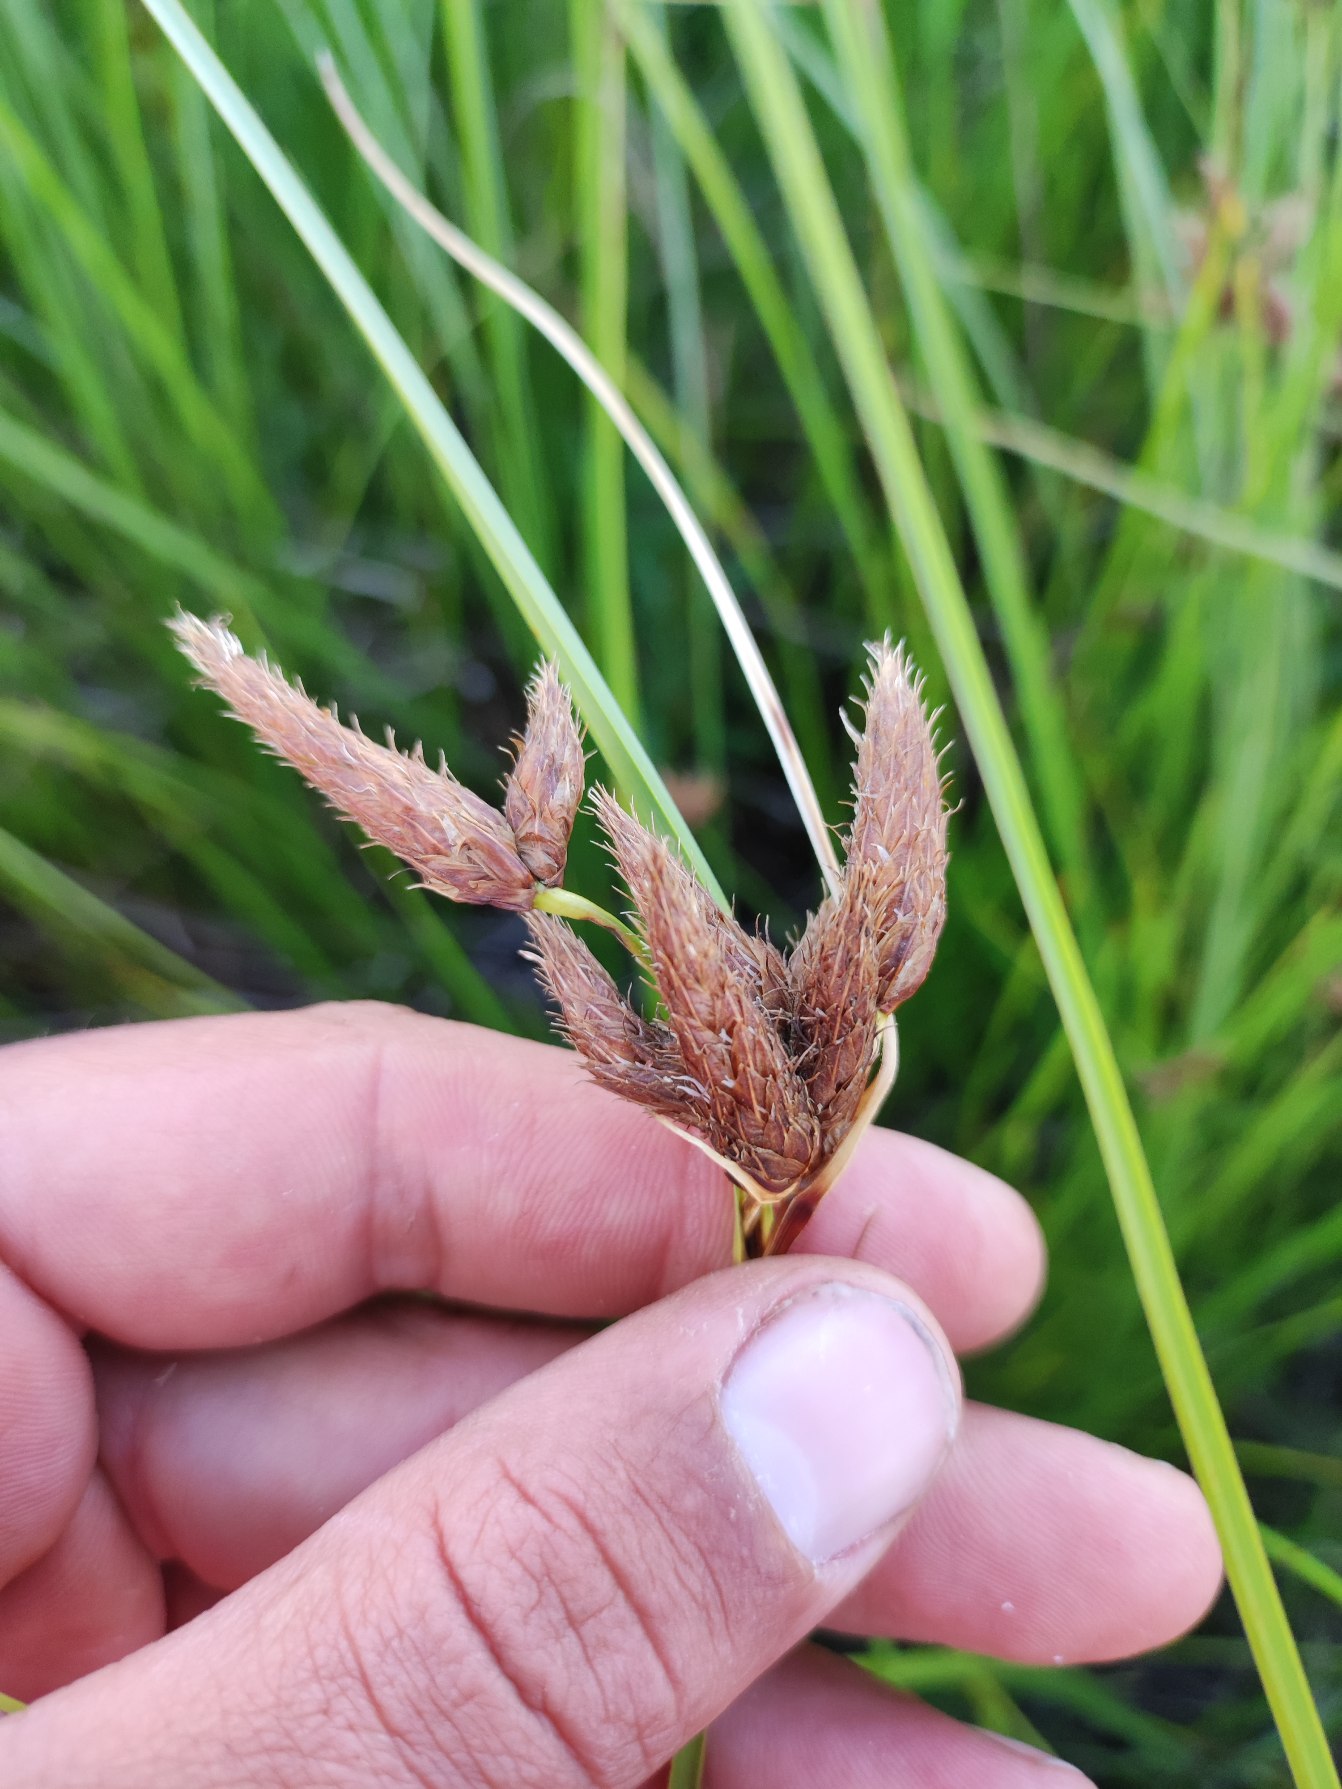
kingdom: Plantae
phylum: Tracheophyta
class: Liliopsida
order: Poales
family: Cyperaceae
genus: Bolboschoenus
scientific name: Bolboschoenus maritimus
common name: Strand-kogleaks
